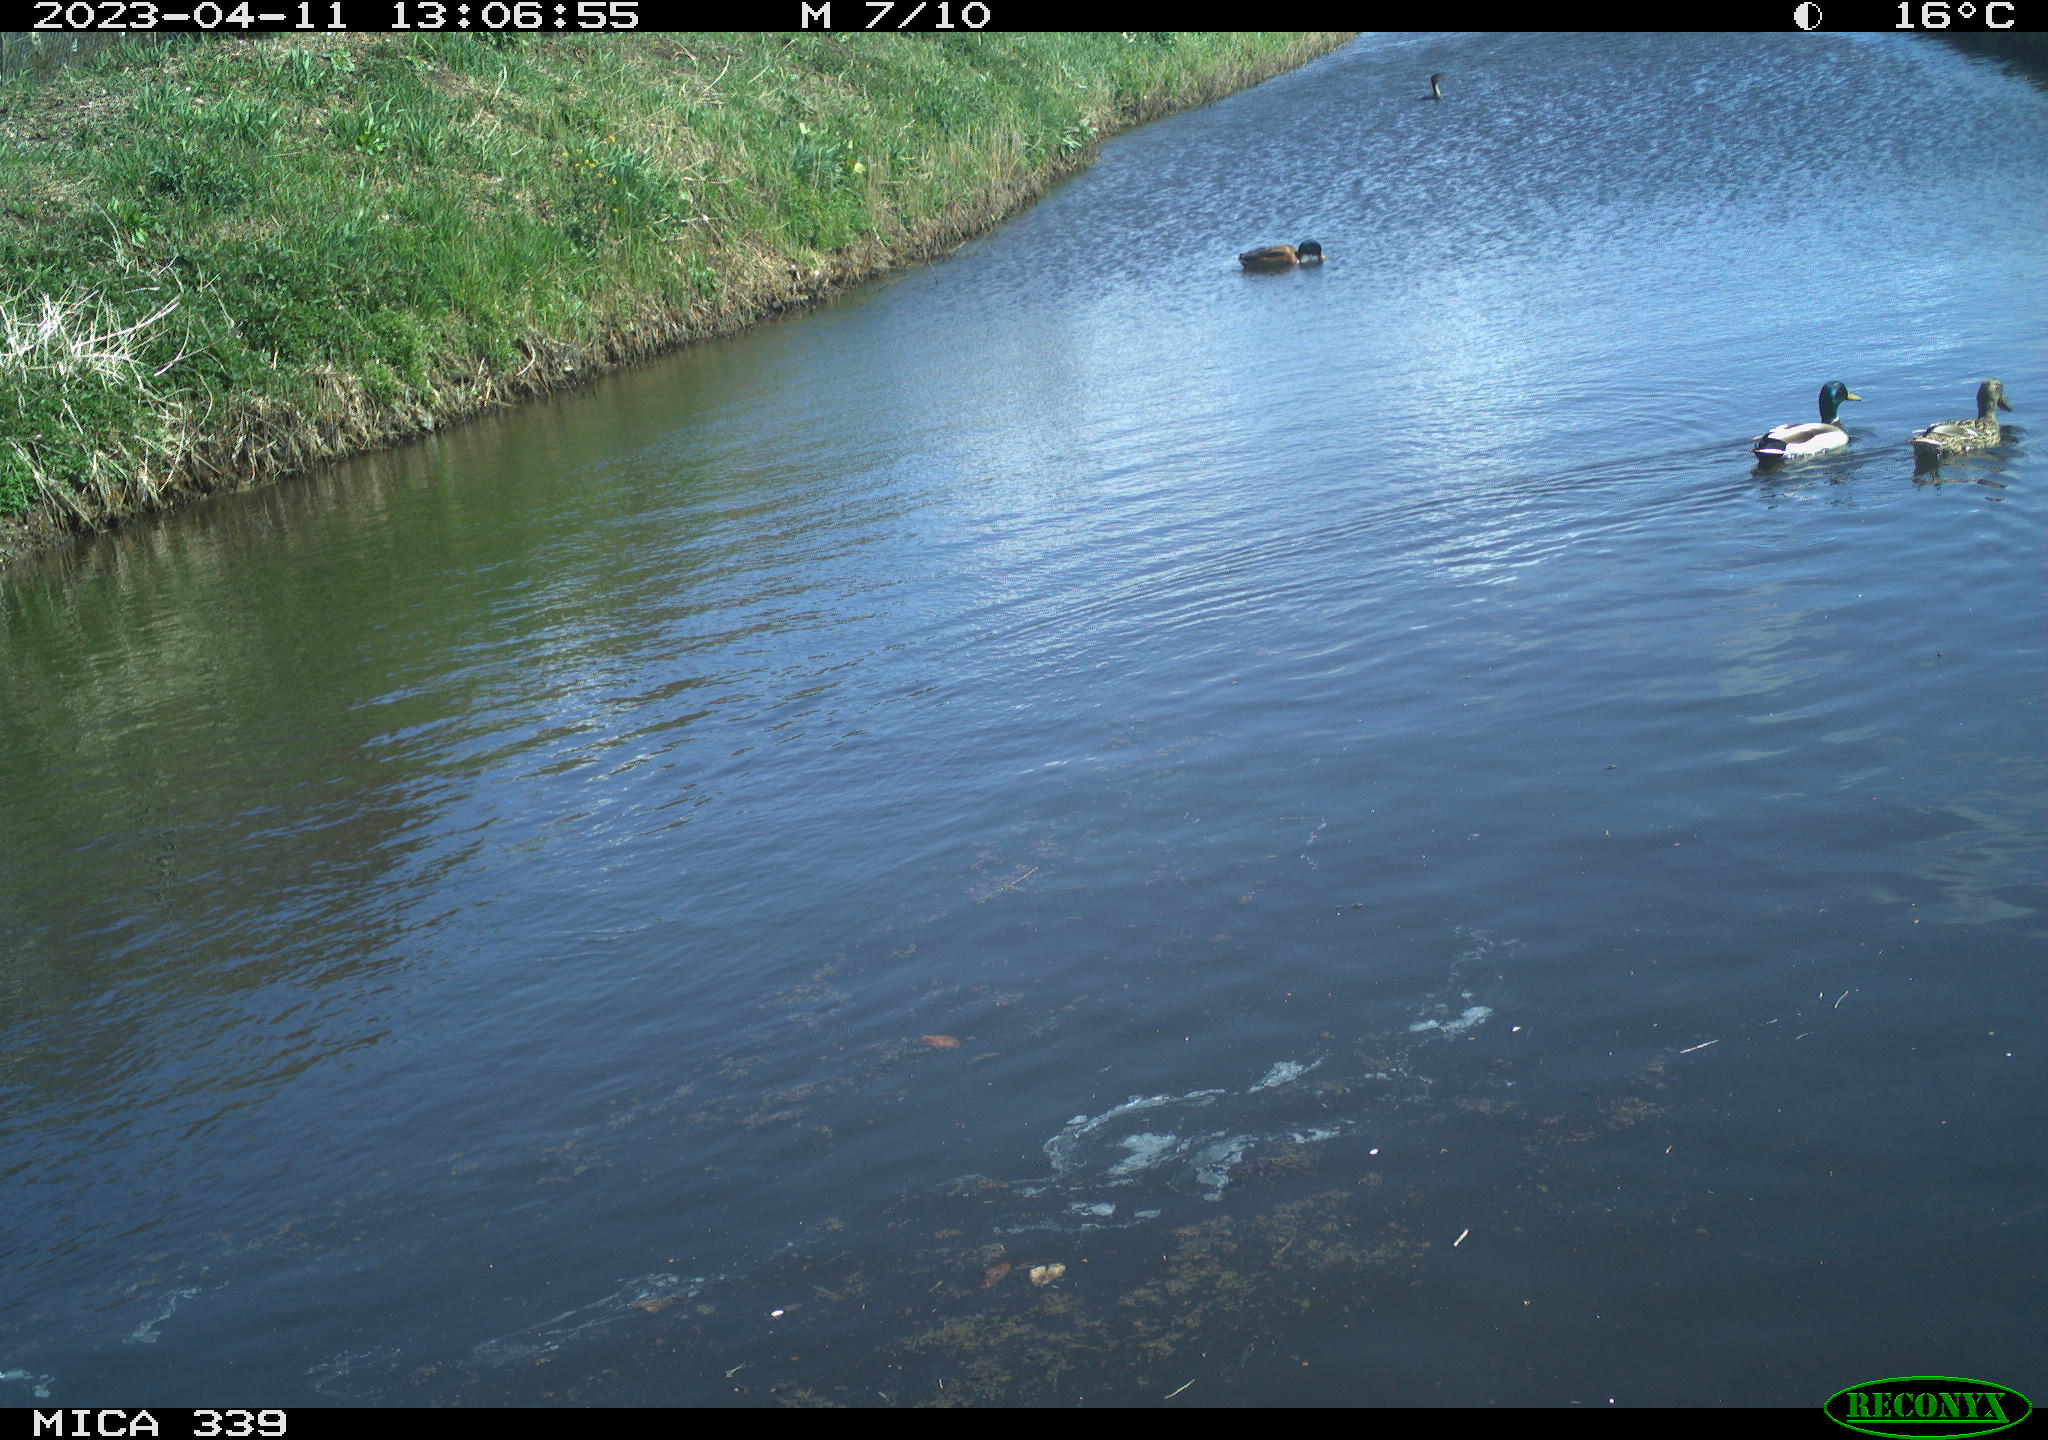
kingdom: Animalia
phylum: Chordata
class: Aves
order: Anseriformes
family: Anatidae
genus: Anas
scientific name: Anas platyrhynchos
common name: Mallard
